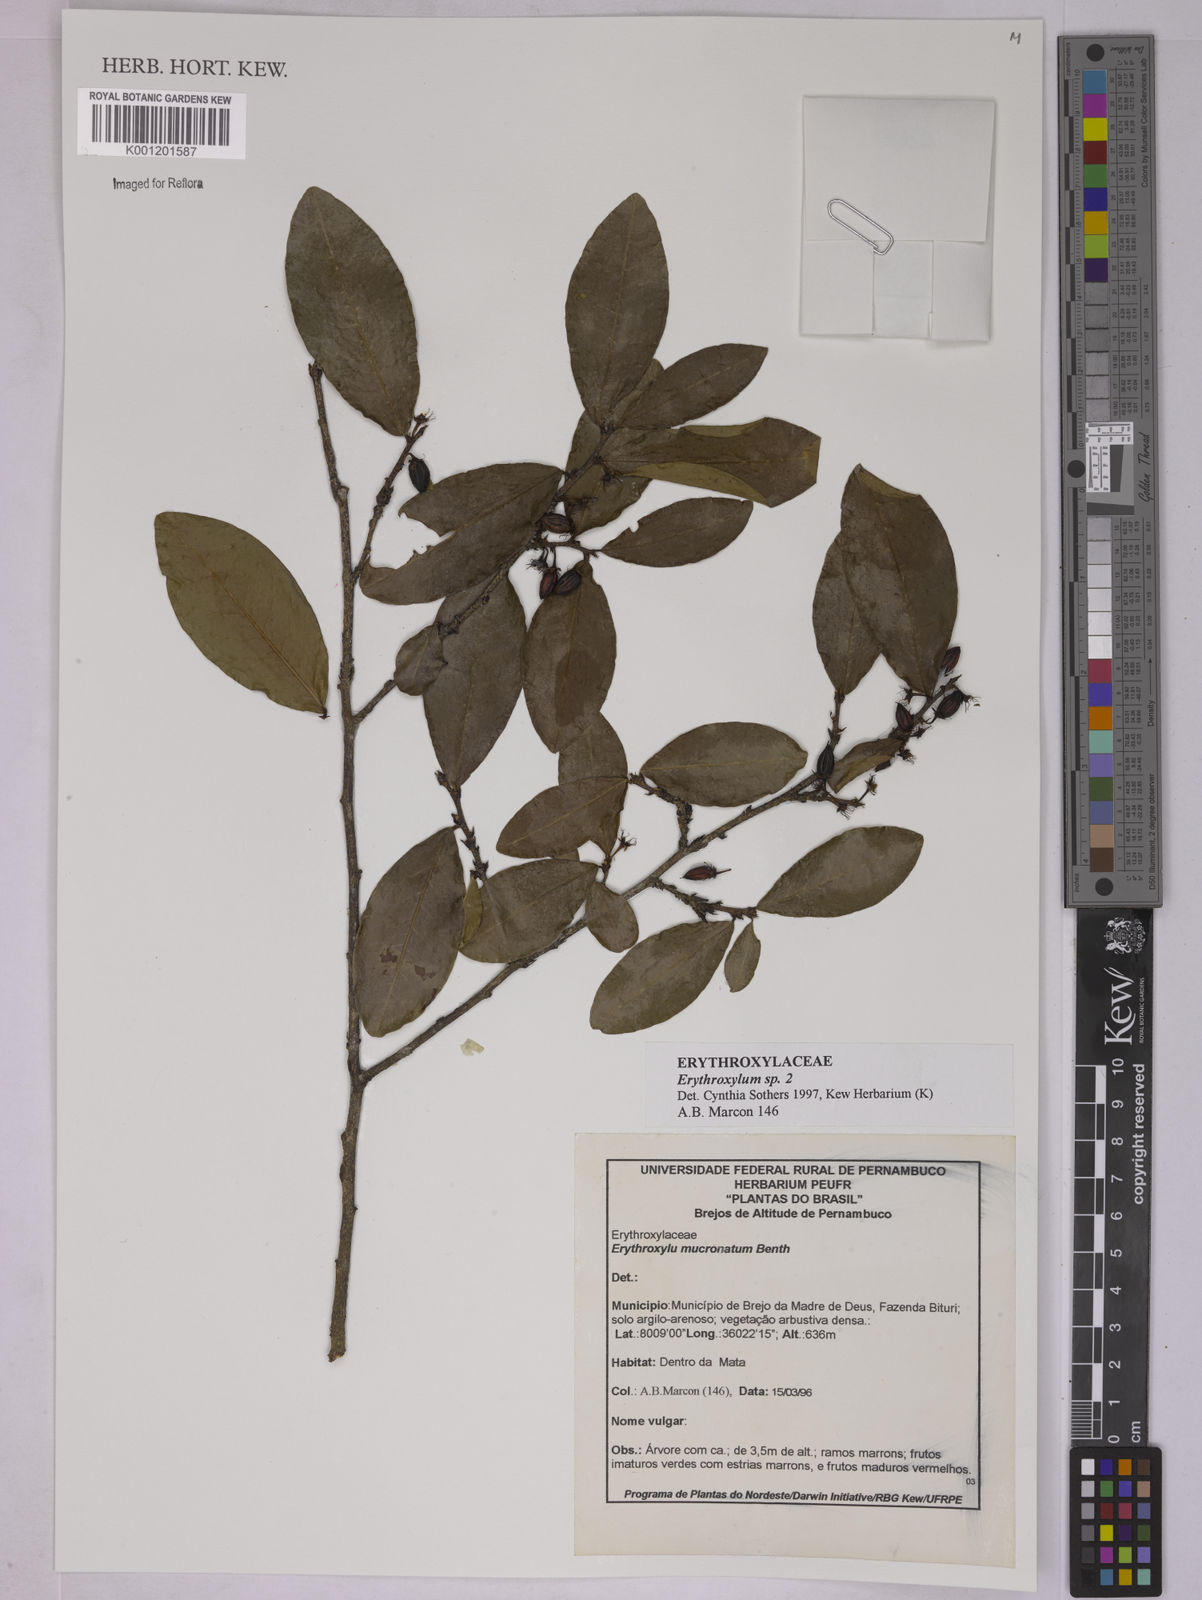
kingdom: Plantae
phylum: Tracheophyta
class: Magnoliopsida
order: Malpighiales
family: Erythroxylaceae
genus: Erythroxylum
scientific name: Erythroxylum
